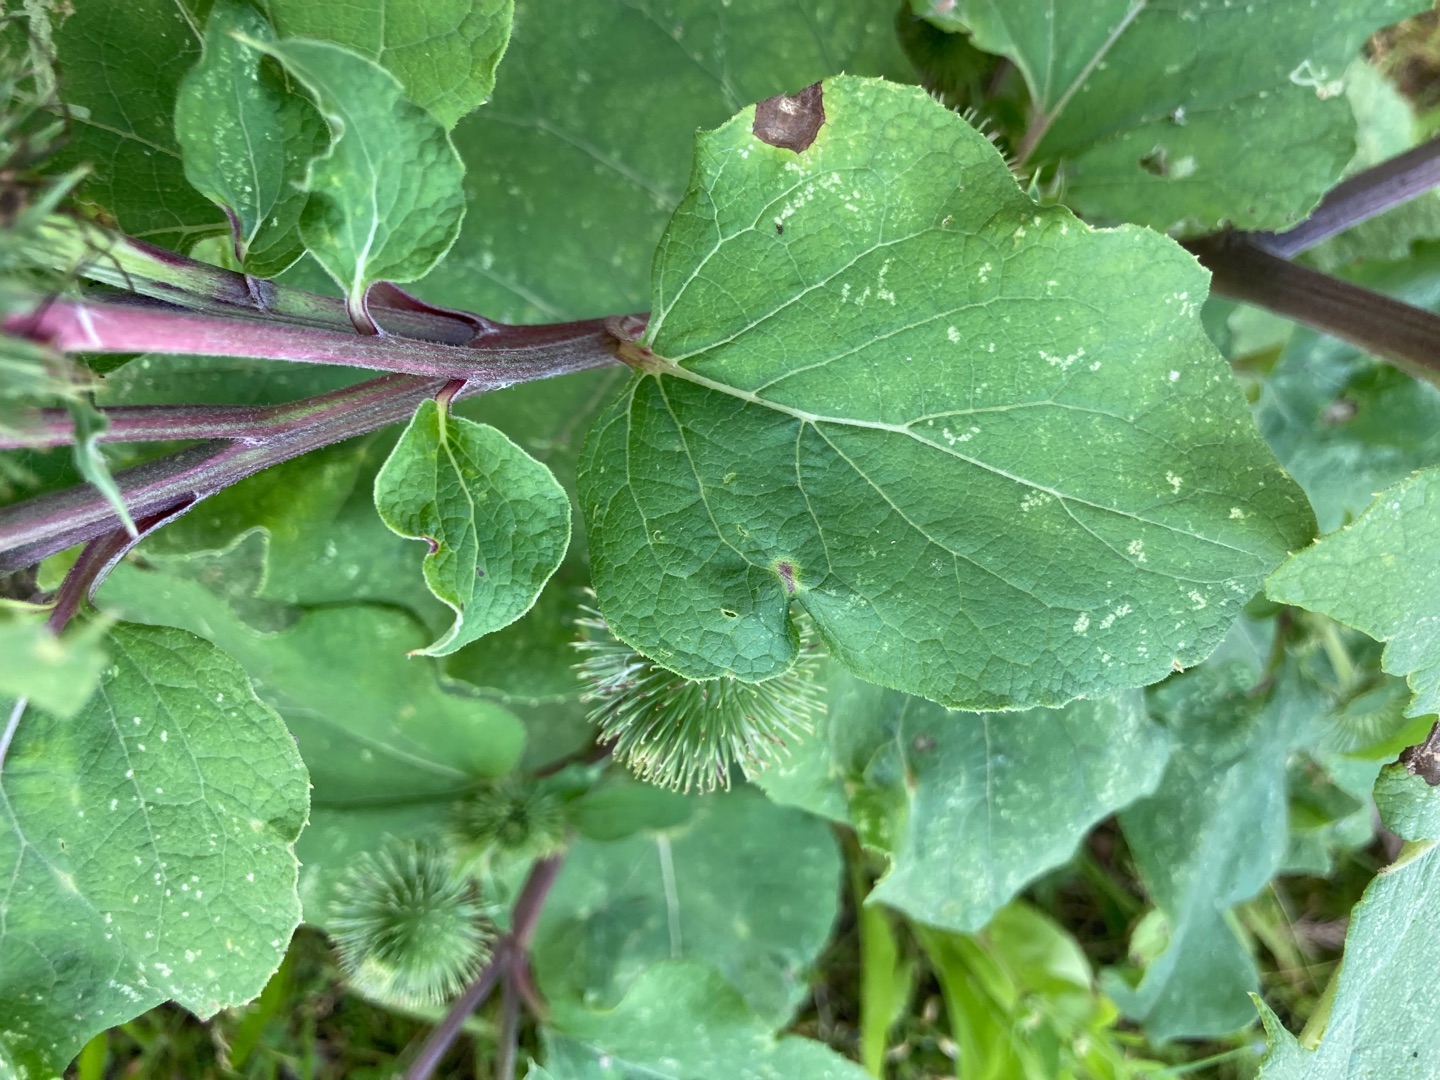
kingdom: Plantae
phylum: Tracheophyta
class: Magnoliopsida
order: Asterales
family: Asteraceae
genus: Arctium
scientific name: Arctium lappa
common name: Glat burre
